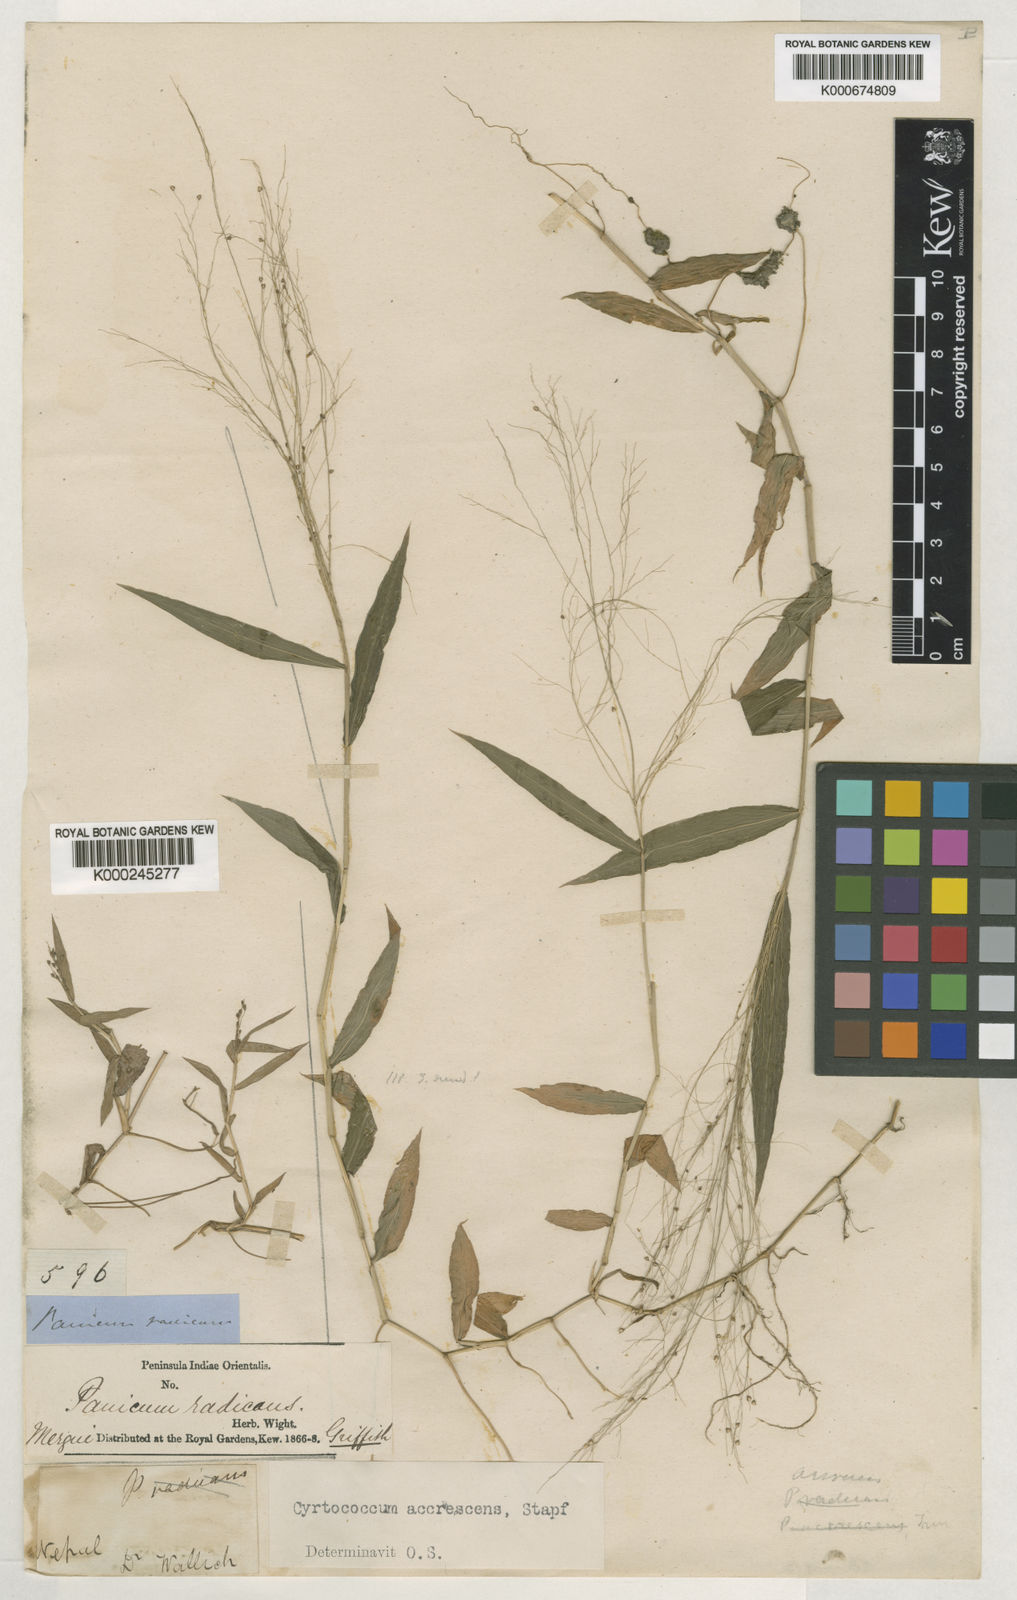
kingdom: Plantae
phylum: Tracheophyta
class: Liliopsida
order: Poales
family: Poaceae
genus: Cyrtococcum
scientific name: Cyrtococcum accrescens
